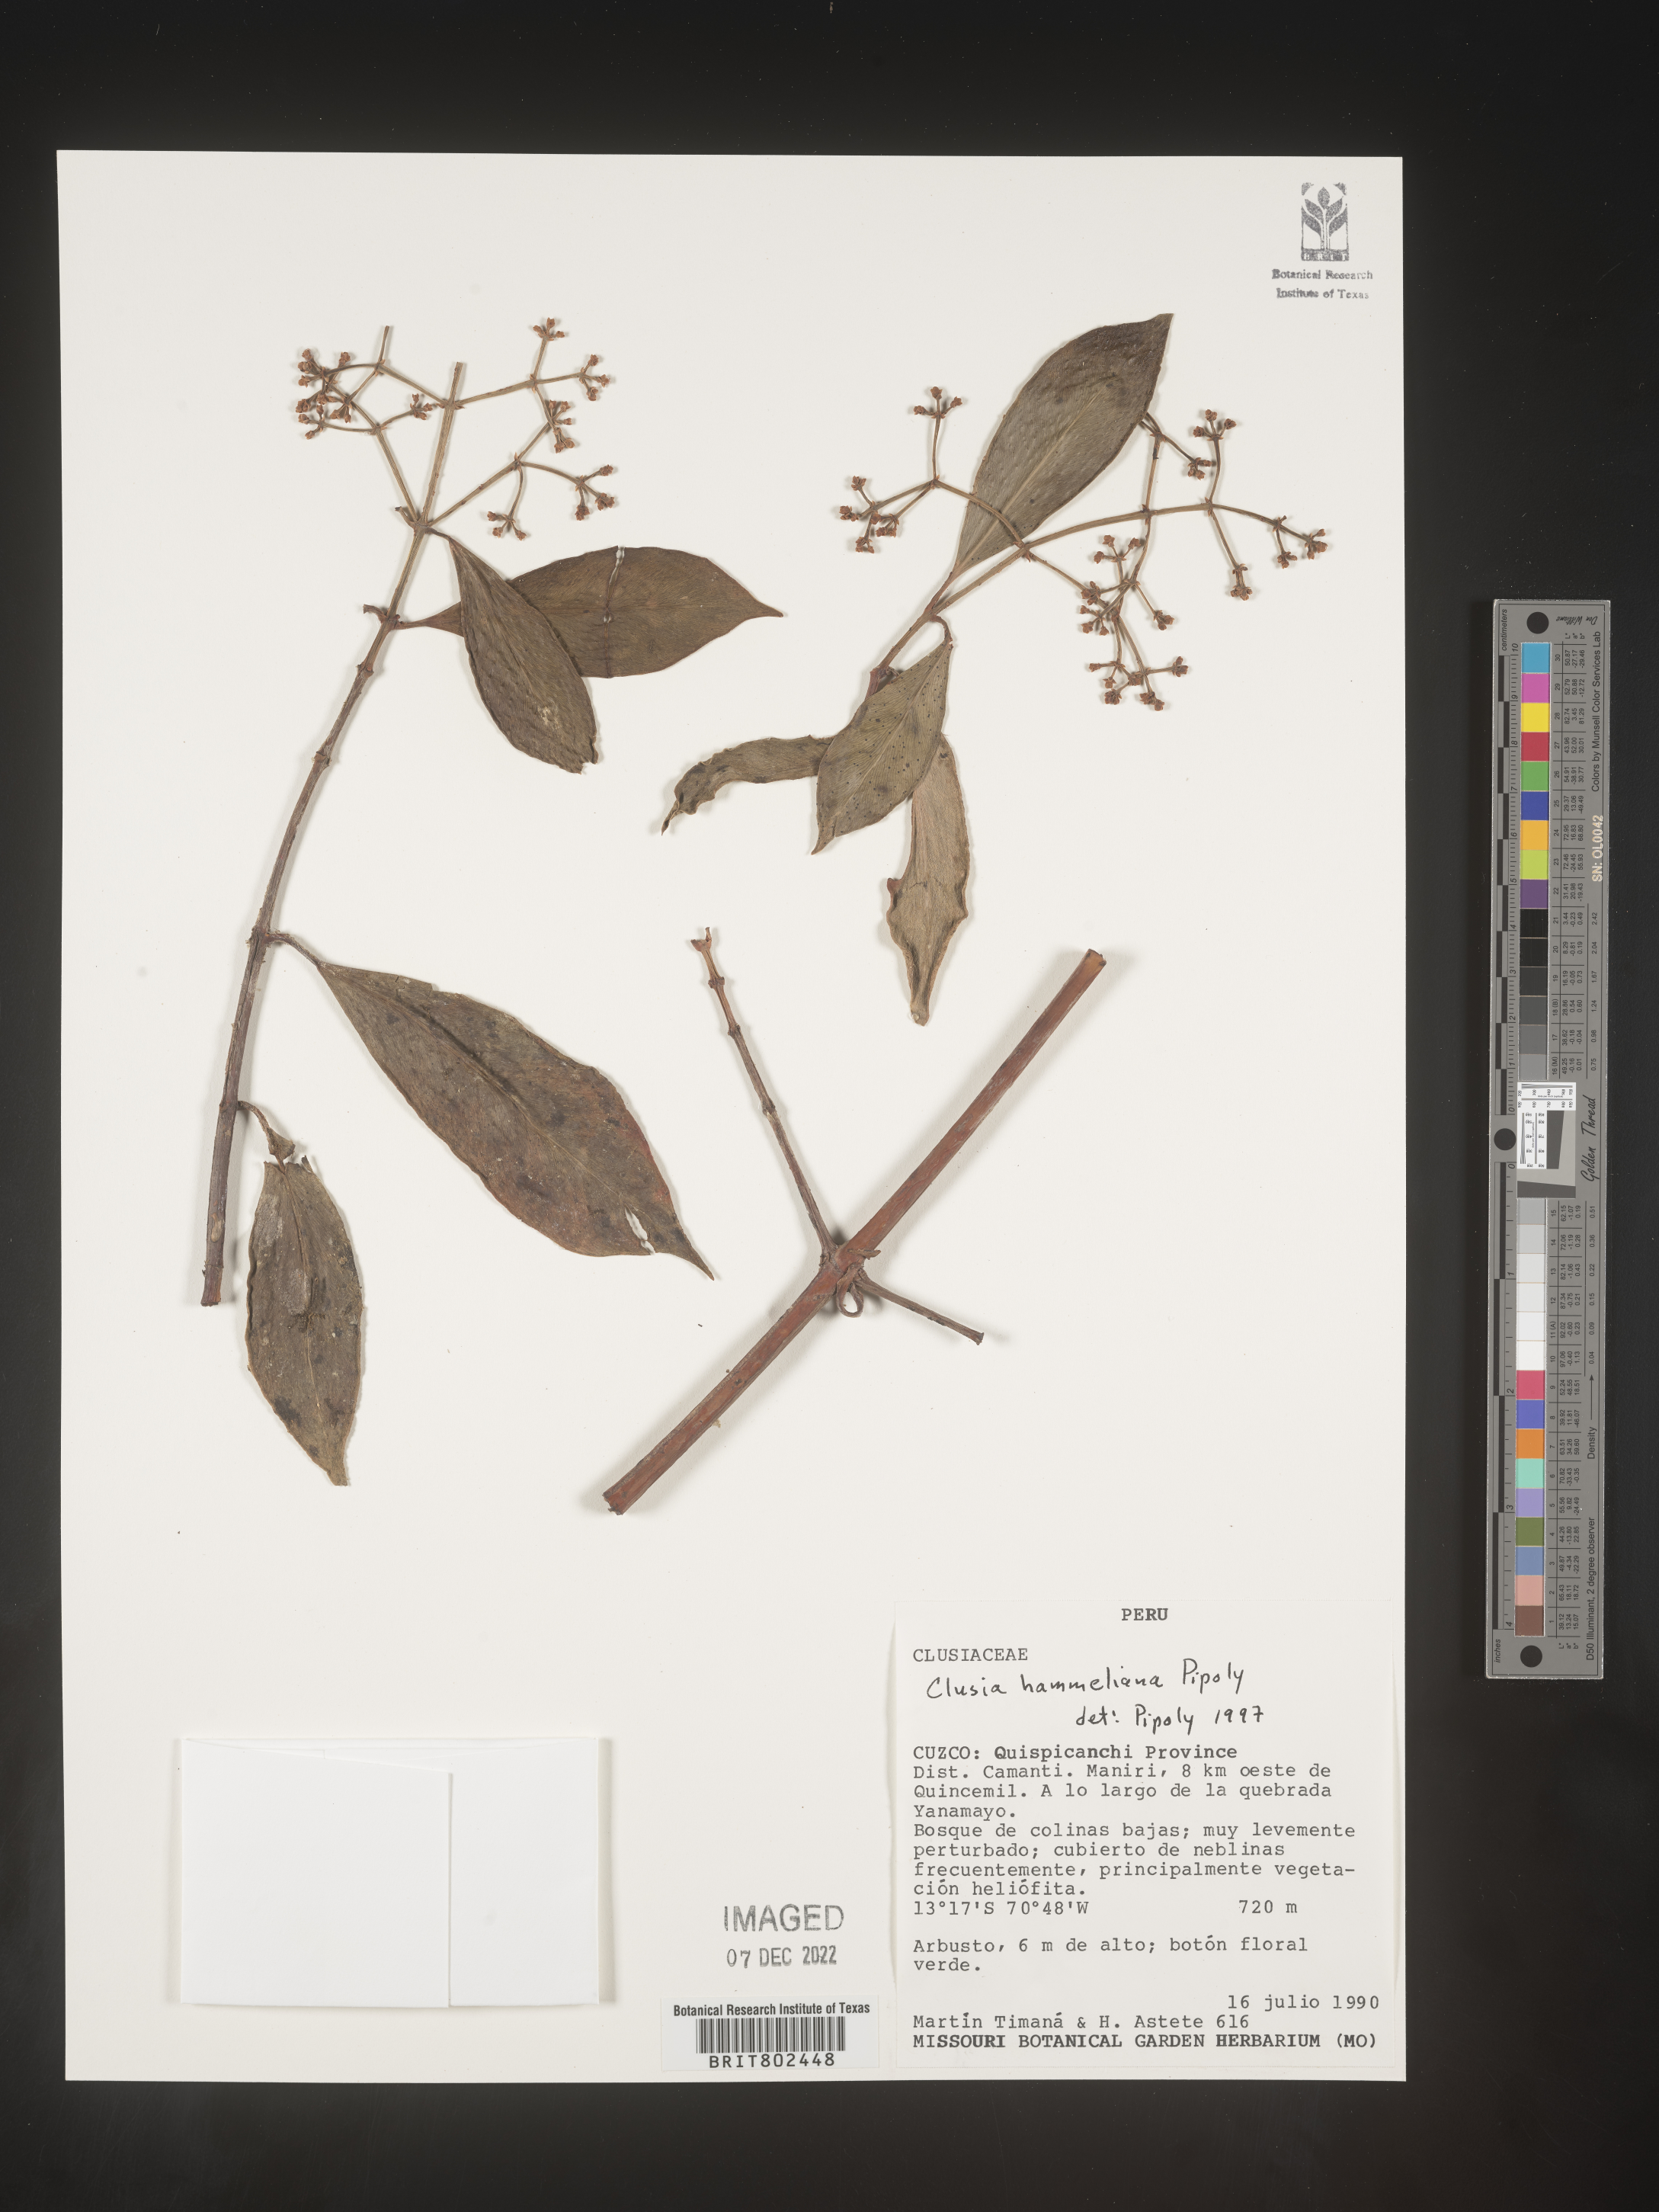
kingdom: Plantae
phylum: Tracheophyta
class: Magnoliopsida
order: Malpighiales
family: Clusiaceae
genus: Clusia
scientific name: Clusia hammeliana
